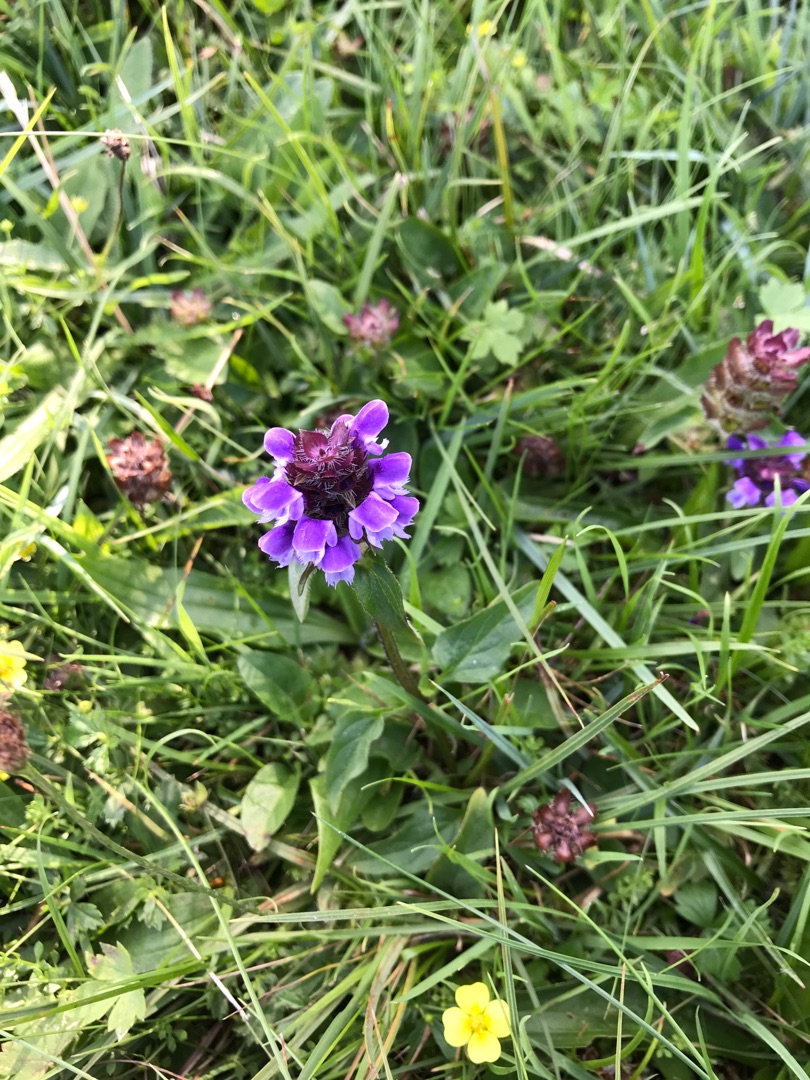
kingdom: Plantae
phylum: Tracheophyta
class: Magnoliopsida
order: Lamiales
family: Lamiaceae
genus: Prunella
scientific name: Prunella vulgaris
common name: Almindelig brunelle
